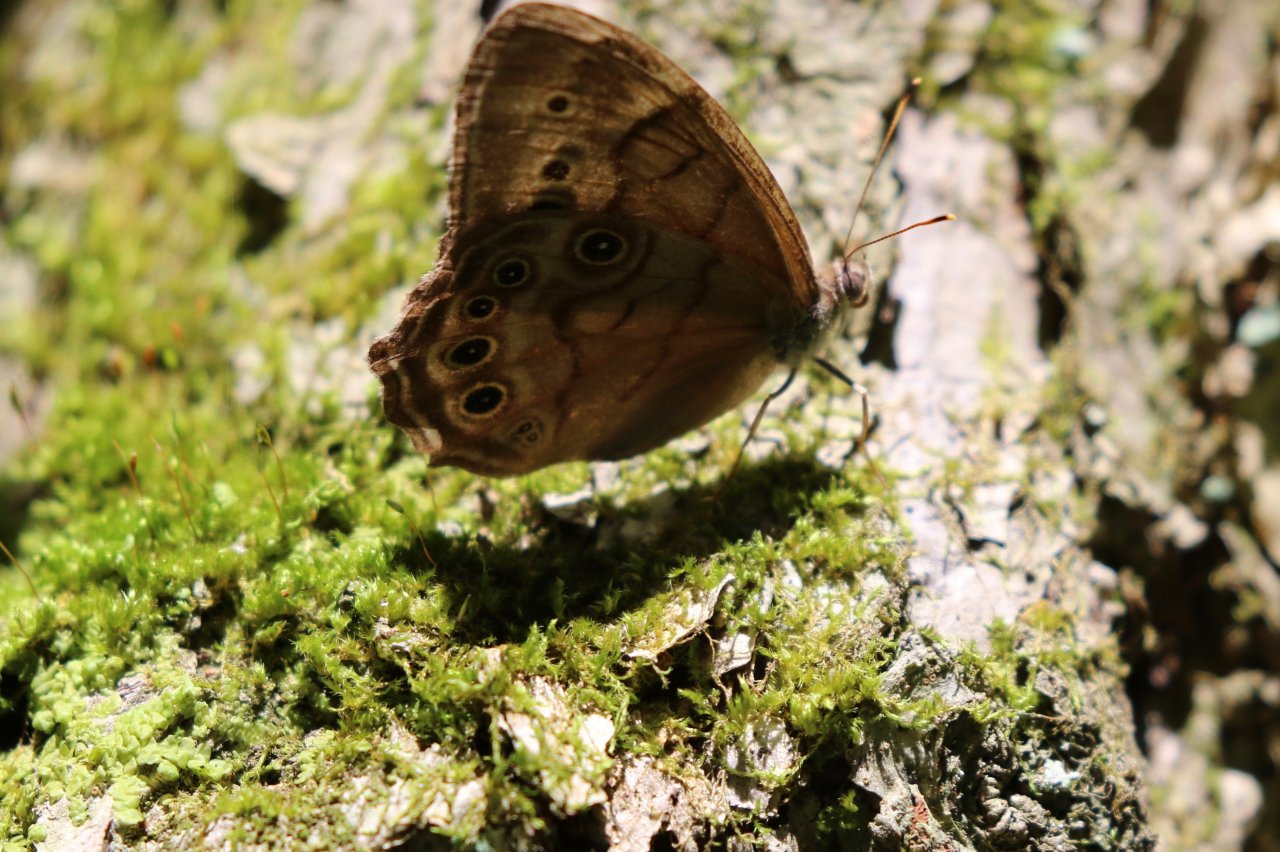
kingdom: Animalia
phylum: Arthropoda
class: Insecta
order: Lepidoptera
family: Nymphalidae
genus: Lethe
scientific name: Lethe anthedon
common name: Northern Pearly-Eye
